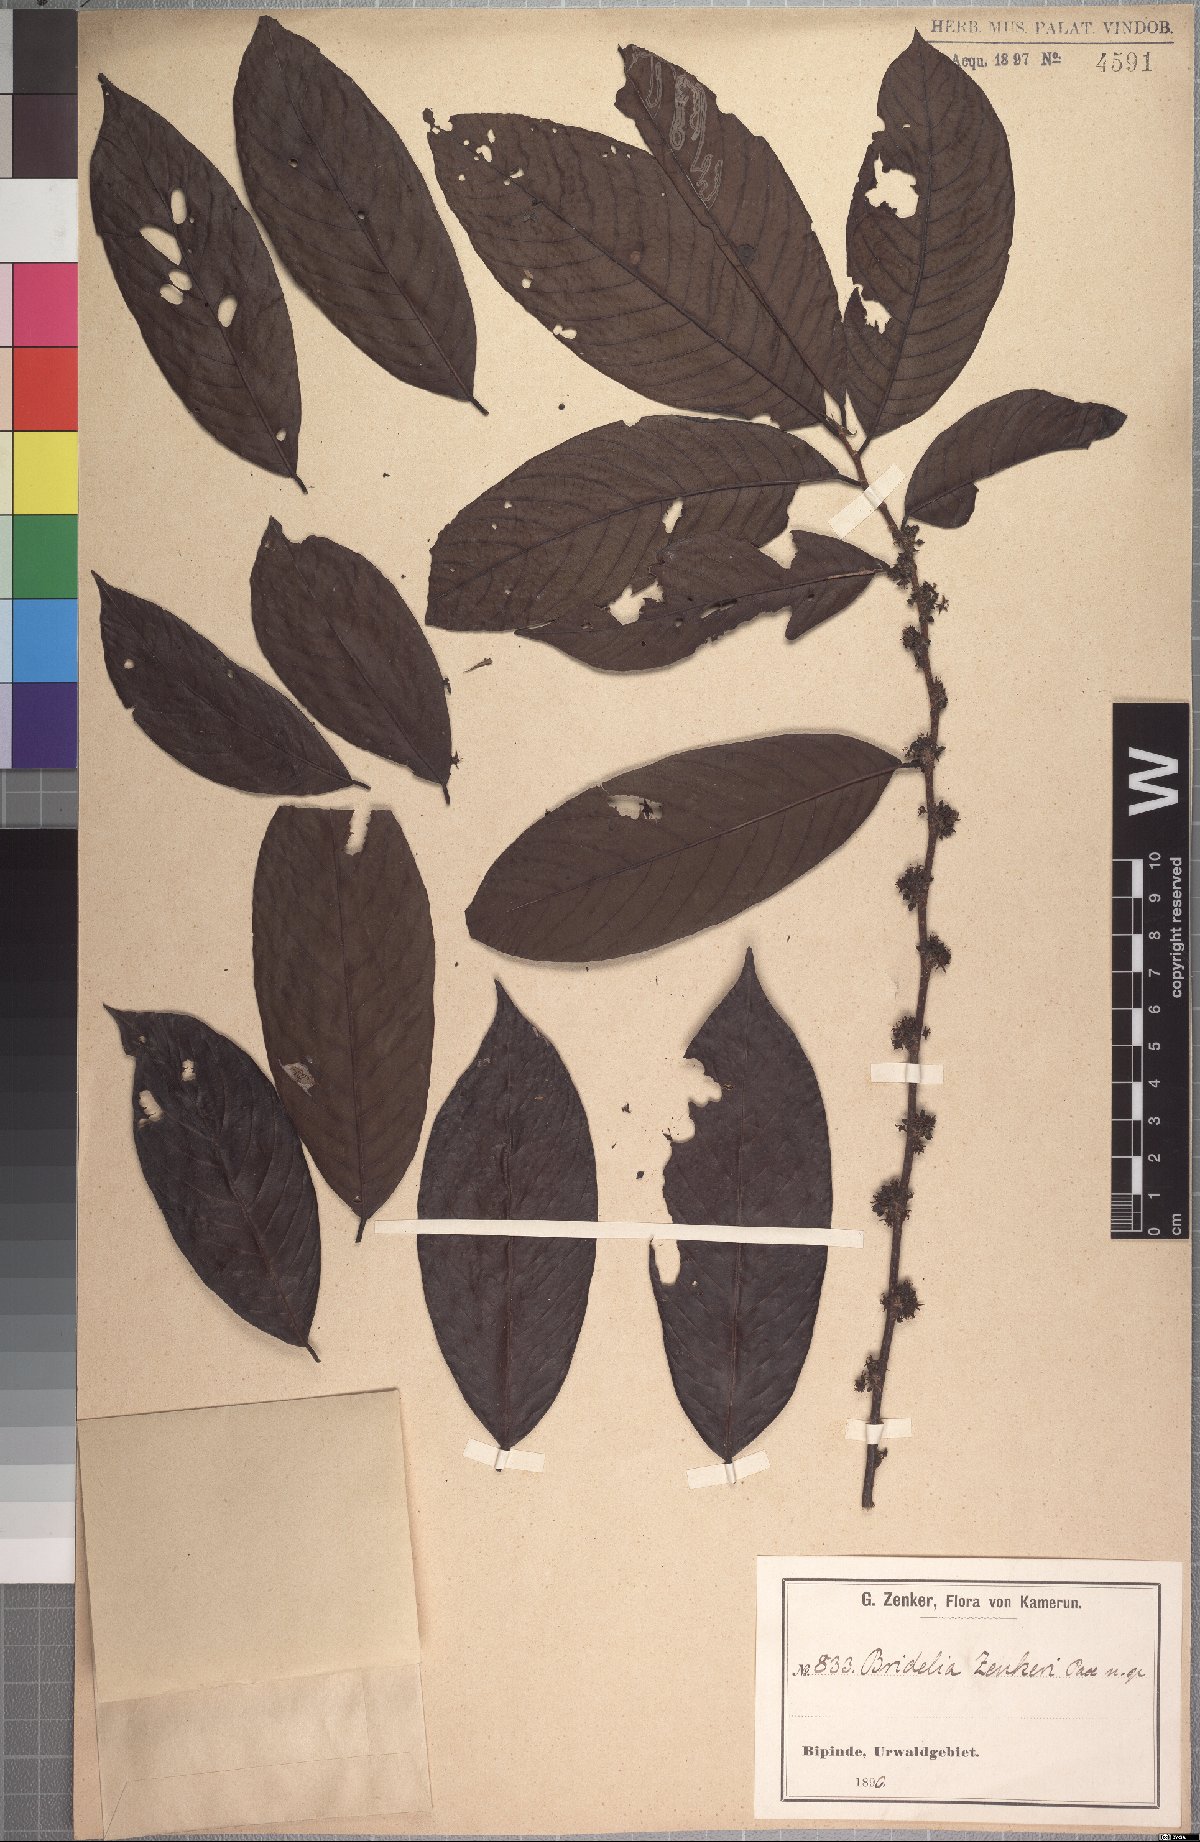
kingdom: Plantae
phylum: Tracheophyta
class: Magnoliopsida
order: Malpighiales
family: Phyllanthaceae
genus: Bridelia
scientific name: Bridelia atroviridis
